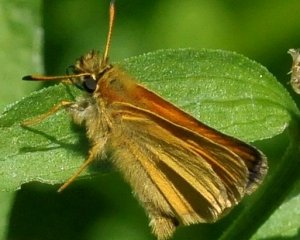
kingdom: Animalia
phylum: Arthropoda
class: Insecta
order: Lepidoptera
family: Hesperiidae
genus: Thymelicus
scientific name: Thymelicus lineola
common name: European Skipper
